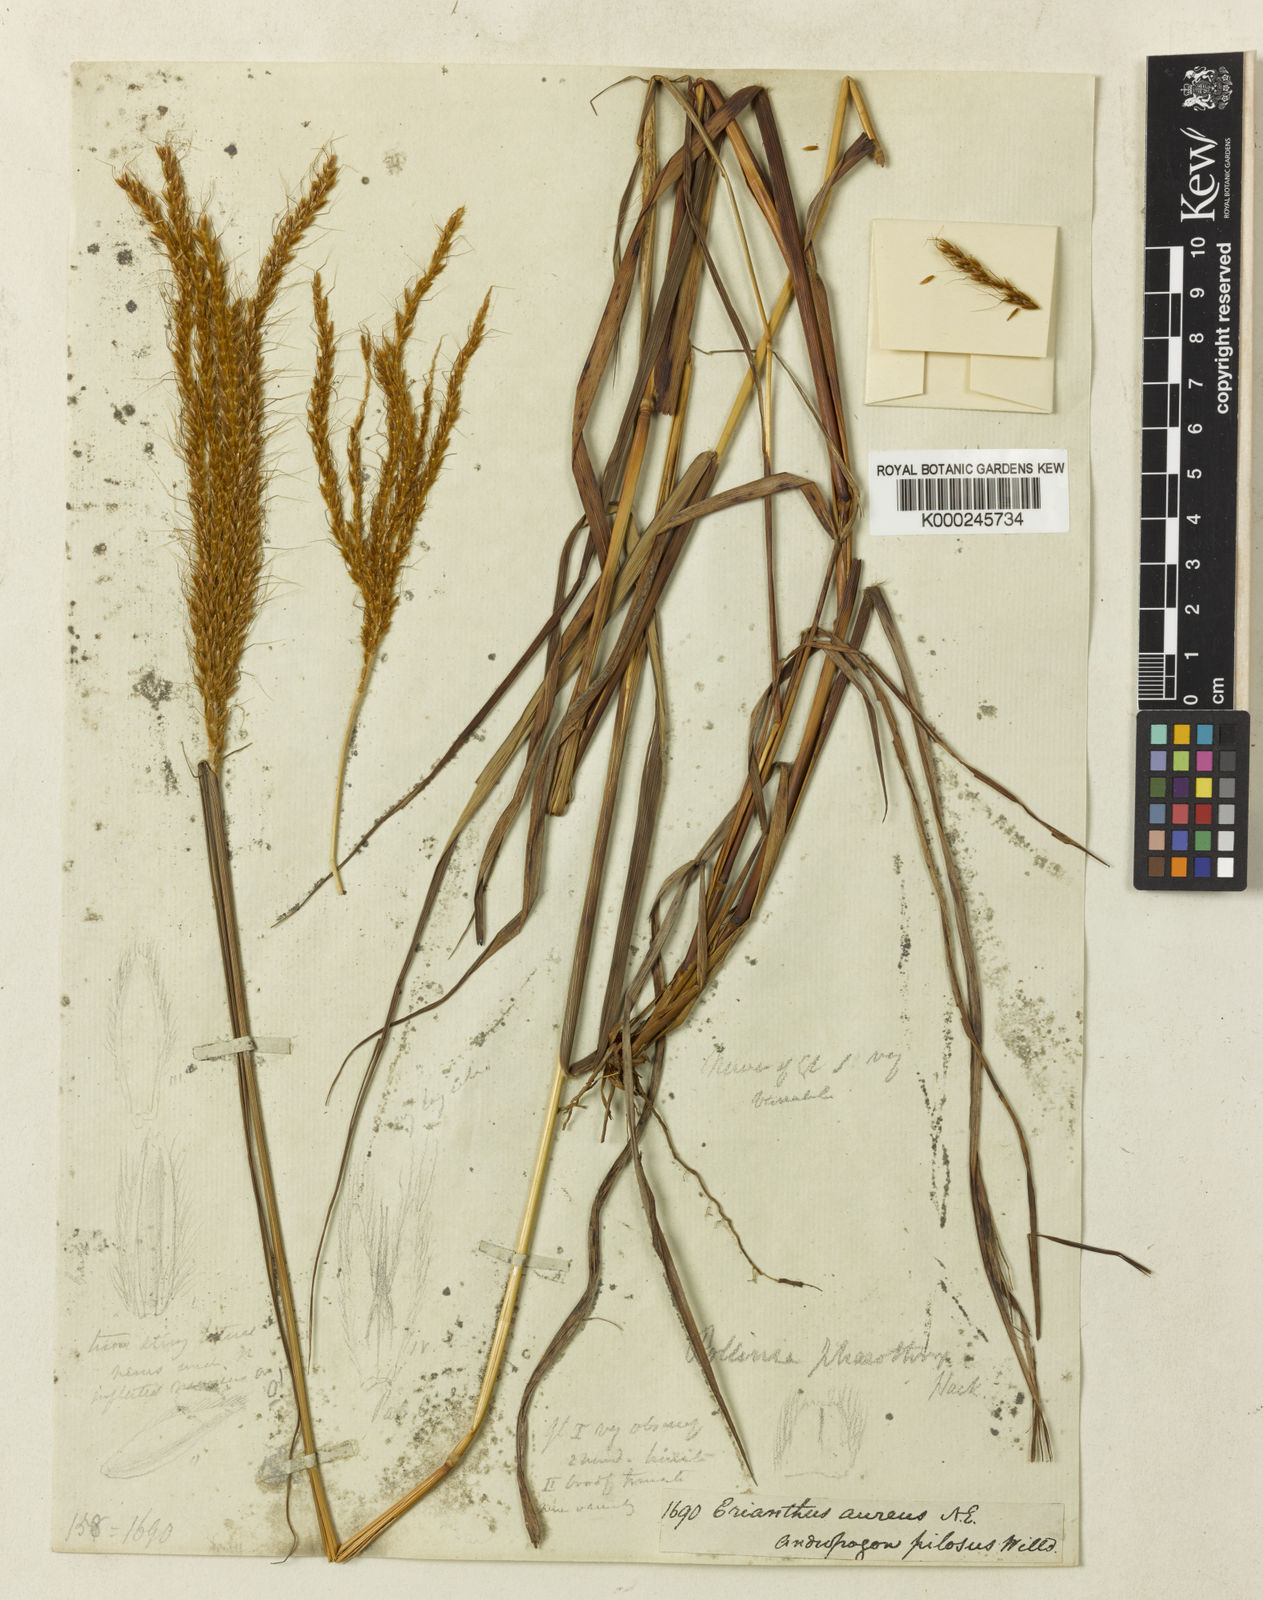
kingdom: Plantae
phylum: Tracheophyta
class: Liliopsida
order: Poales
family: Poaceae
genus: Eulalia
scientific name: Eulalia phaeothrix
